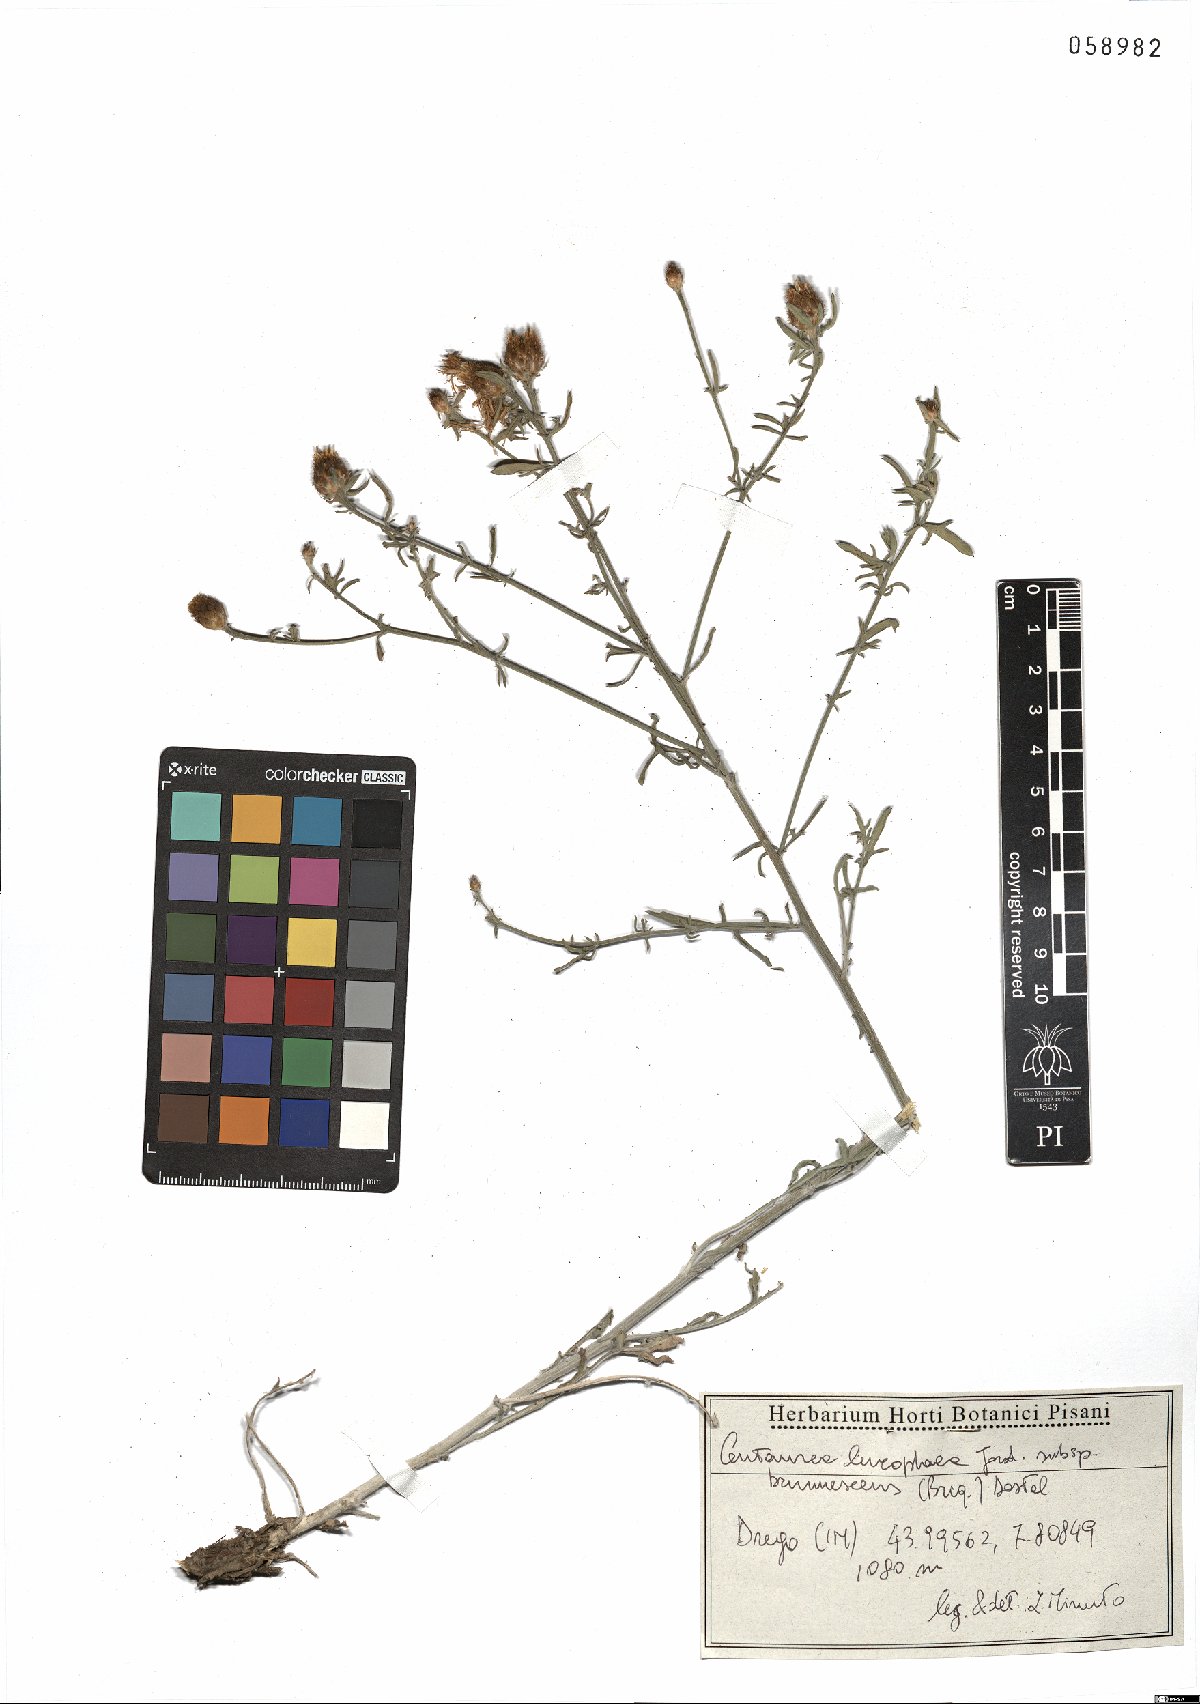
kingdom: Plantae
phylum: Tracheophyta
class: Magnoliopsida
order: Asterales
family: Asteraceae
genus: Centaurea
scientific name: Centaurea leucophaea
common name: Whitish-leaved knapweed
